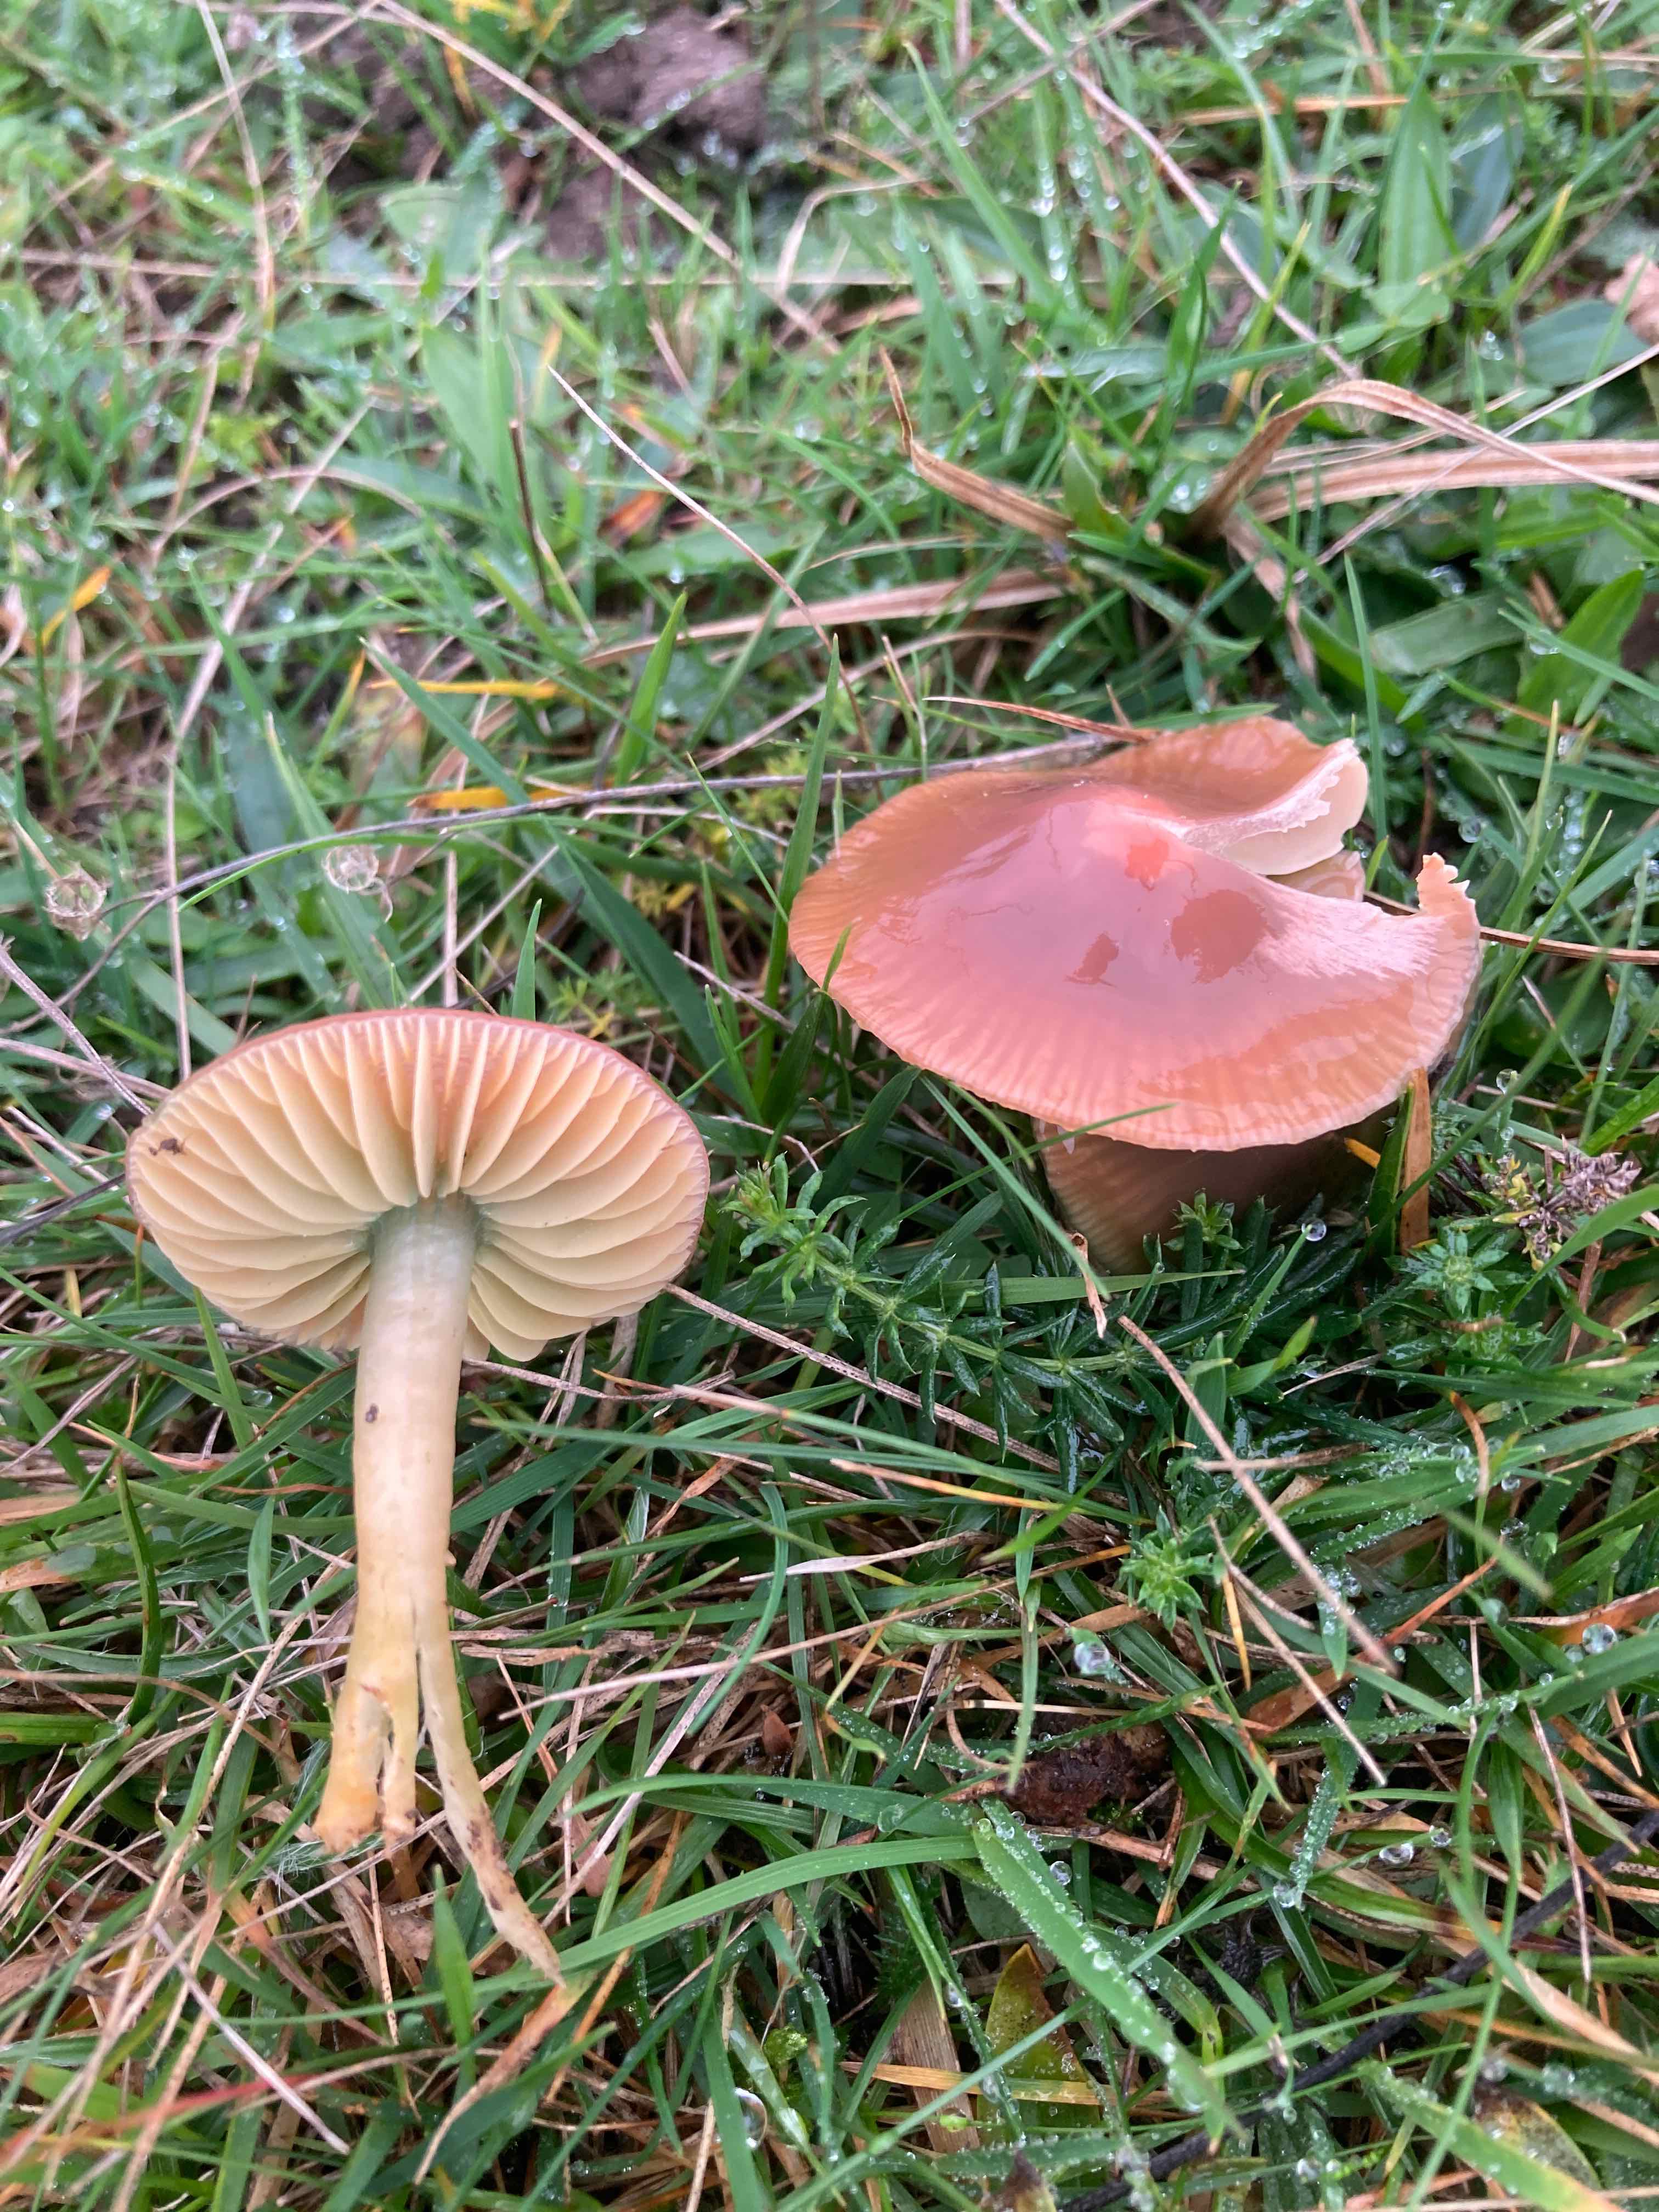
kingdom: Fungi
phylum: Basidiomycota
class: Agaricomycetes
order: Agaricales
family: Hygrophoraceae
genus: Gliophorus
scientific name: Gliophorus psittacinus
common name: papegøje-vokshat
